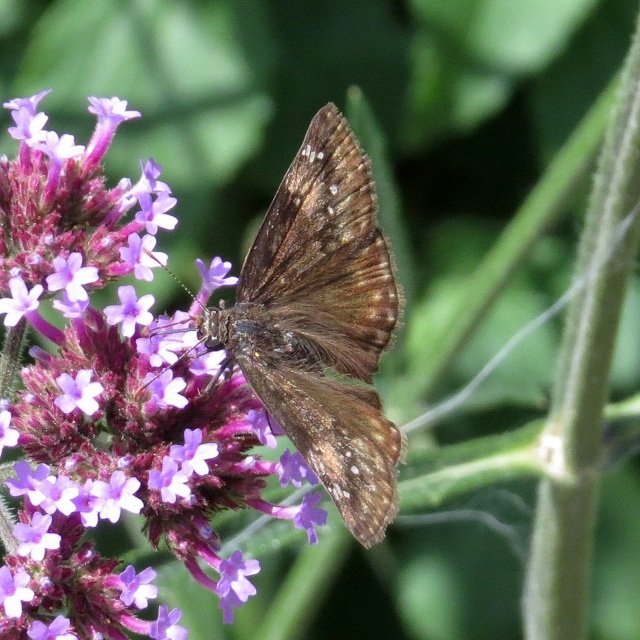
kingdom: Animalia
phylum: Arthropoda
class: Insecta
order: Lepidoptera
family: Hesperiidae
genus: Gesta
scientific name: Gesta
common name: Wild Indigo Duskywing
